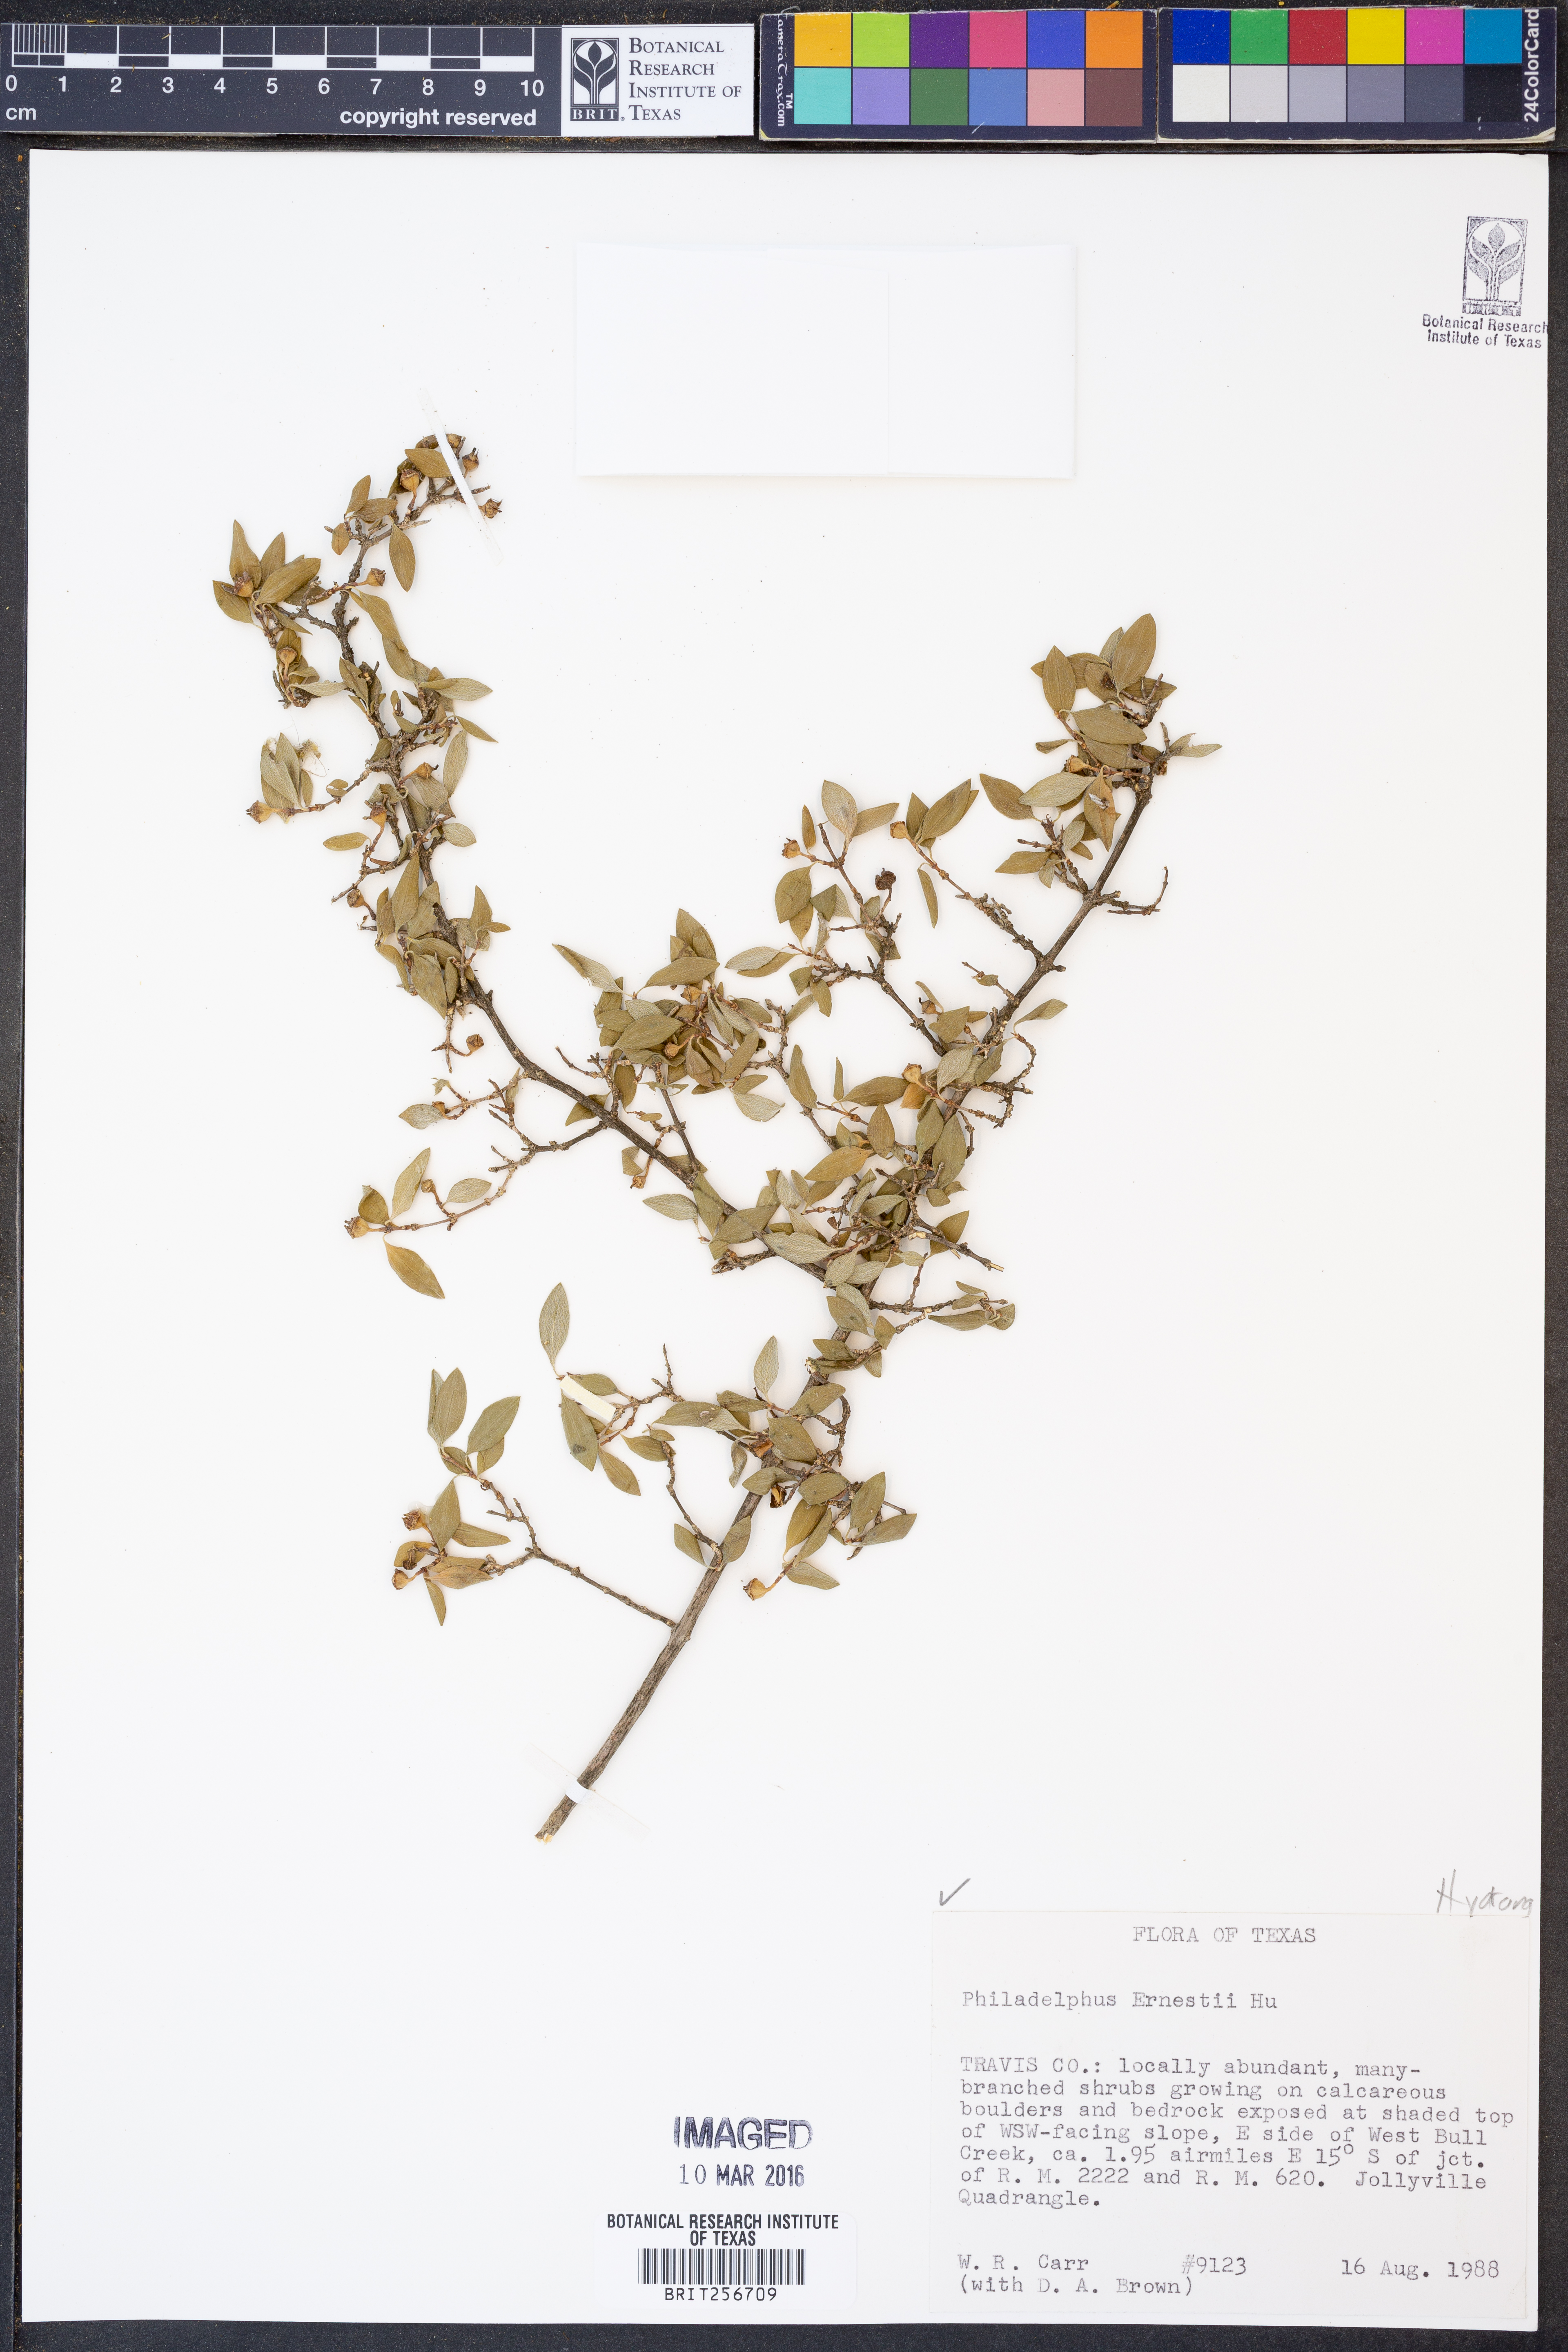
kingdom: Plantae
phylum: Tracheophyta
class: Magnoliopsida
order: Cornales
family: Hydrangeaceae
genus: Philadelphus
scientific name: Philadelphus texensis
